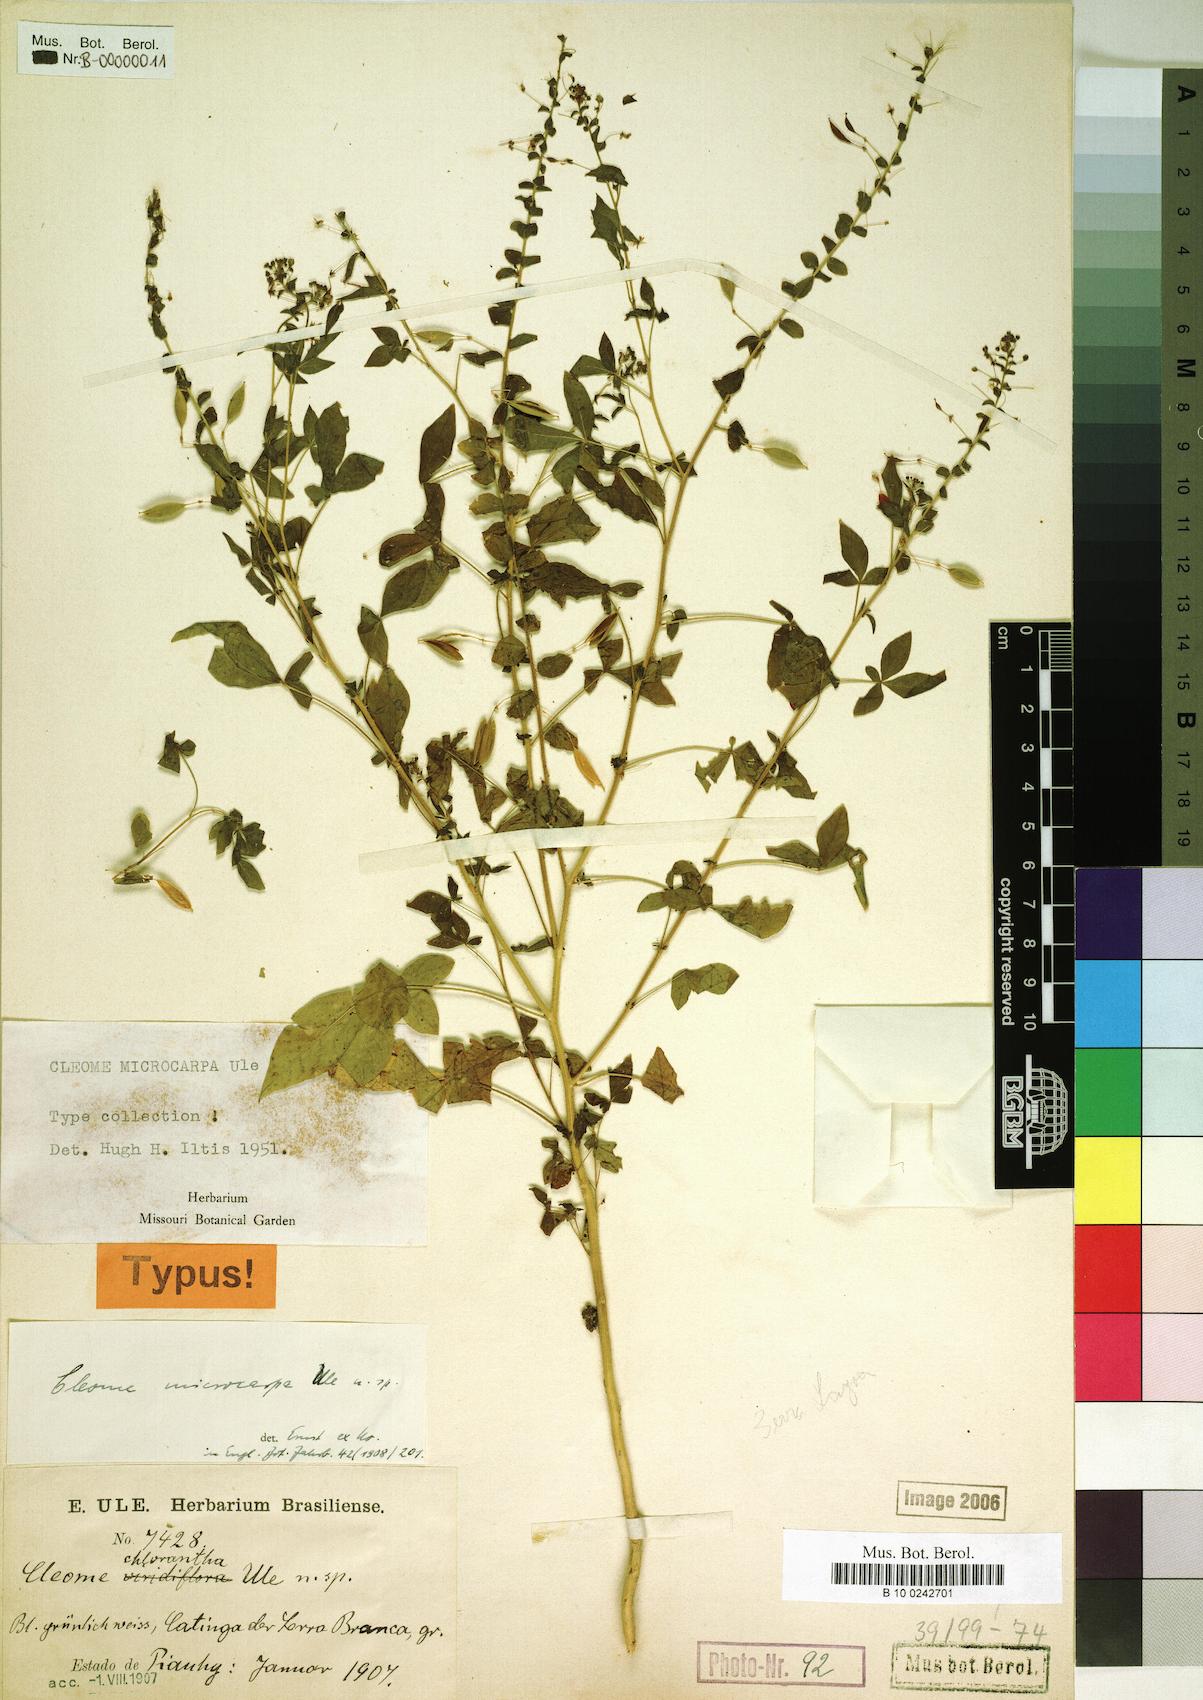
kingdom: Plantae
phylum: Tracheophyta
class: Magnoliopsida
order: Brassicales
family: Cleomaceae
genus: Tarenaya
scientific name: Tarenaya microcarpa
